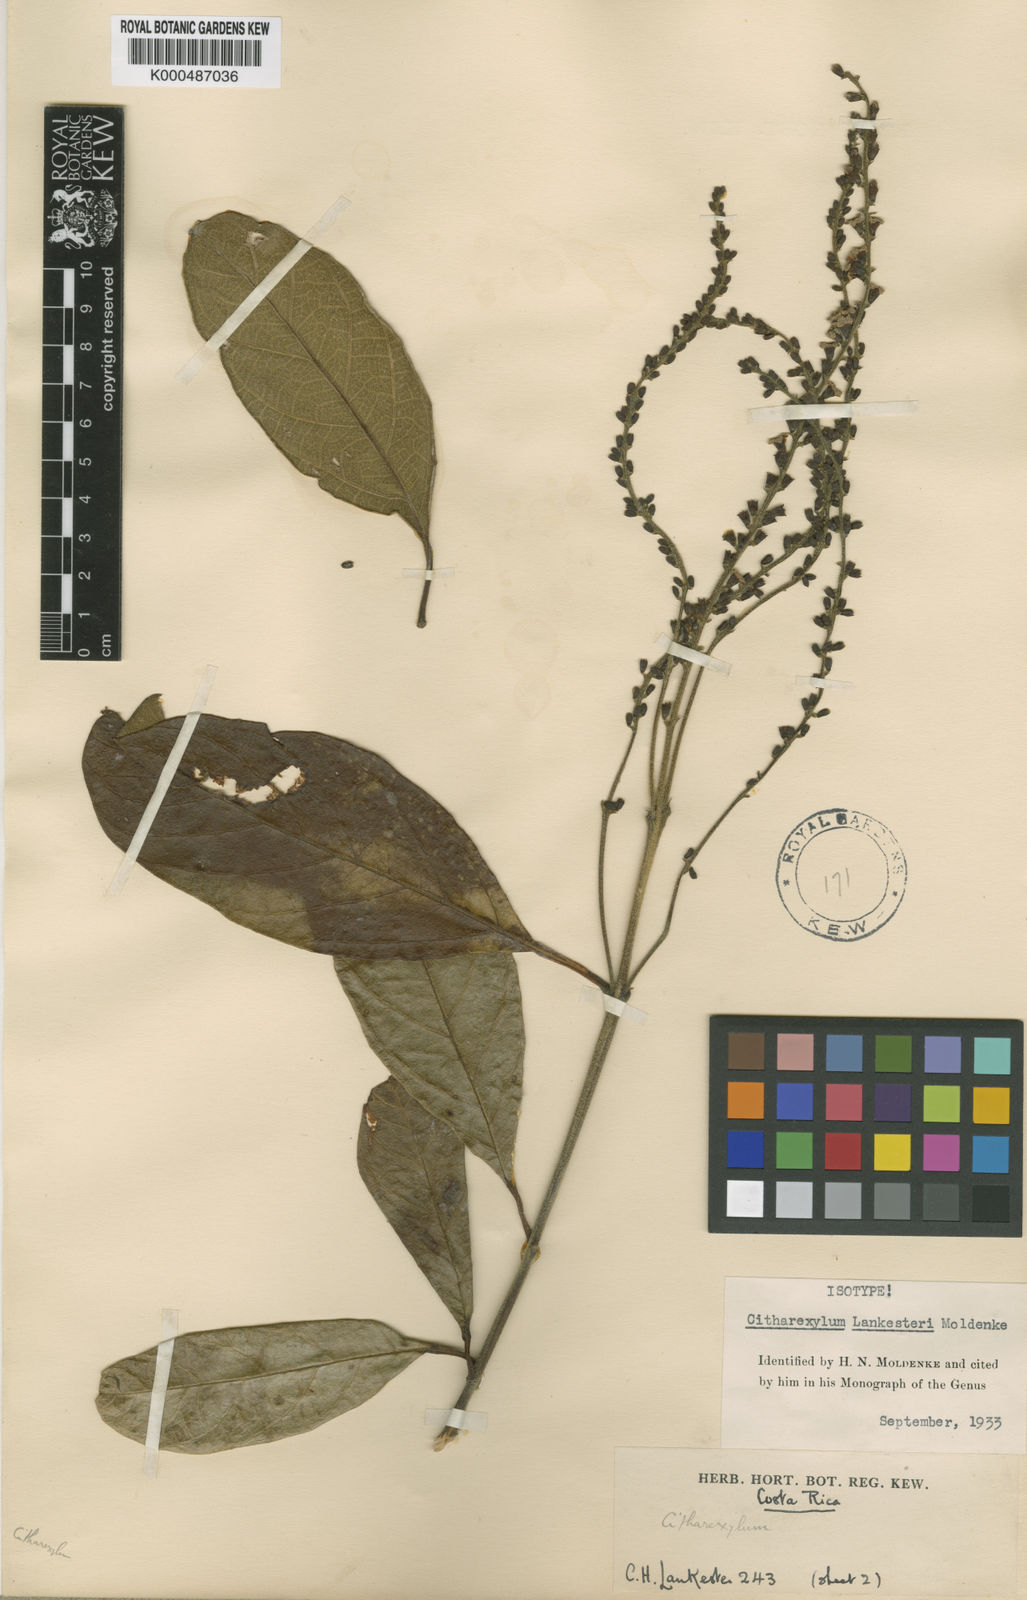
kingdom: Plantae
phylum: Tracheophyta
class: Magnoliopsida
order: Lamiales
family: Verbenaceae
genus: Citharexylum
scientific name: Citharexylum mocinoi
